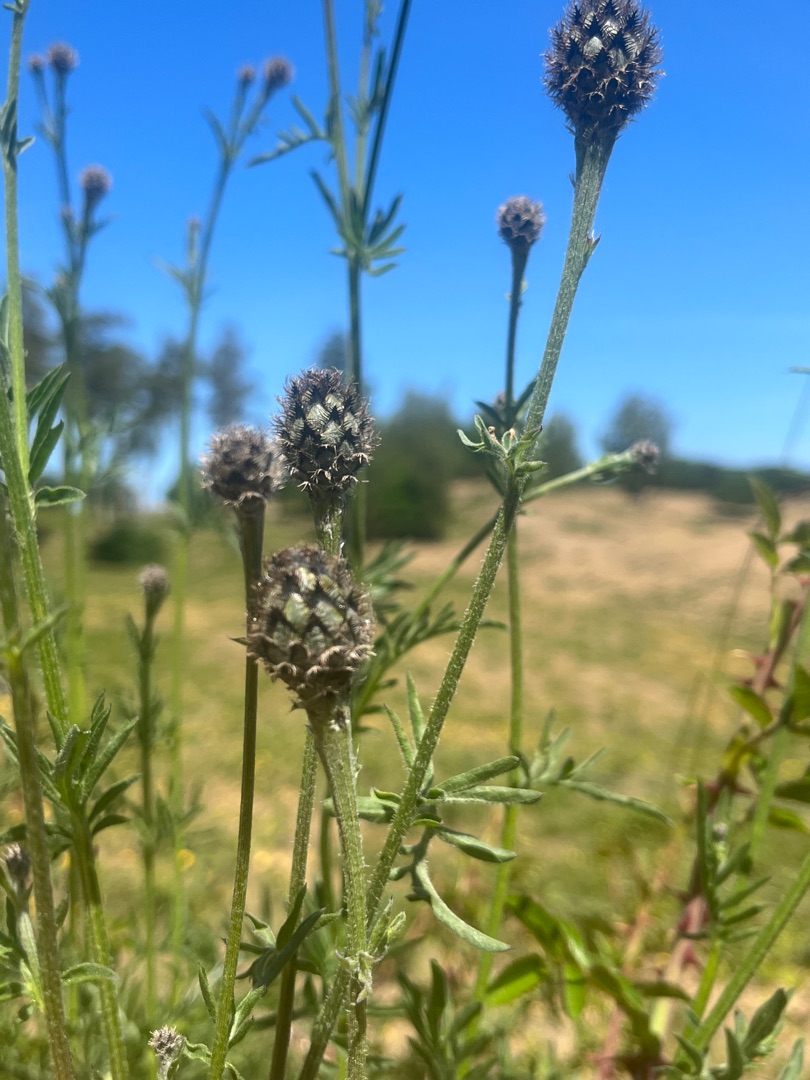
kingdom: Plantae
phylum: Tracheophyta
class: Magnoliopsida
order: Asterales
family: Asteraceae
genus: Centaurea
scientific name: Centaurea scabiosa
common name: Stor knopurt
